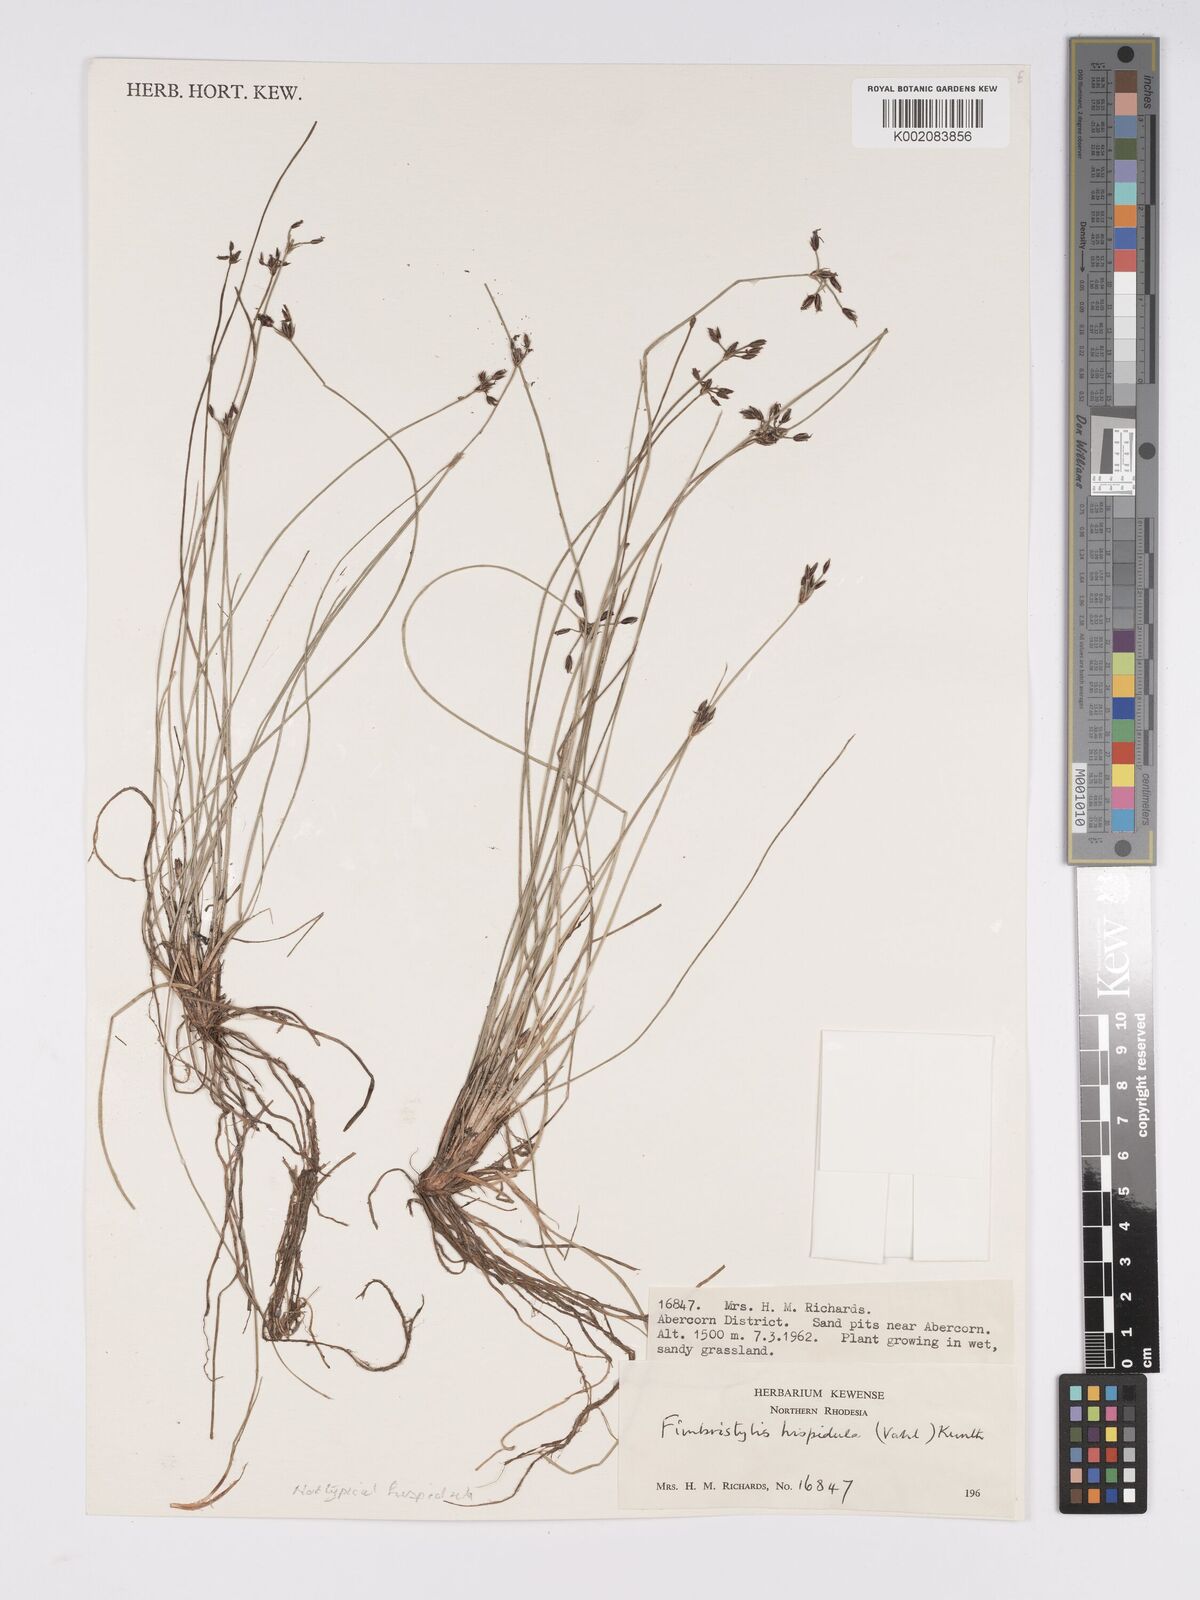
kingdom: Plantae
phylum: Tracheophyta
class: Liliopsida
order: Poales
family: Cyperaceae
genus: Bulbostylis
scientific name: Bulbostylis hispidula
